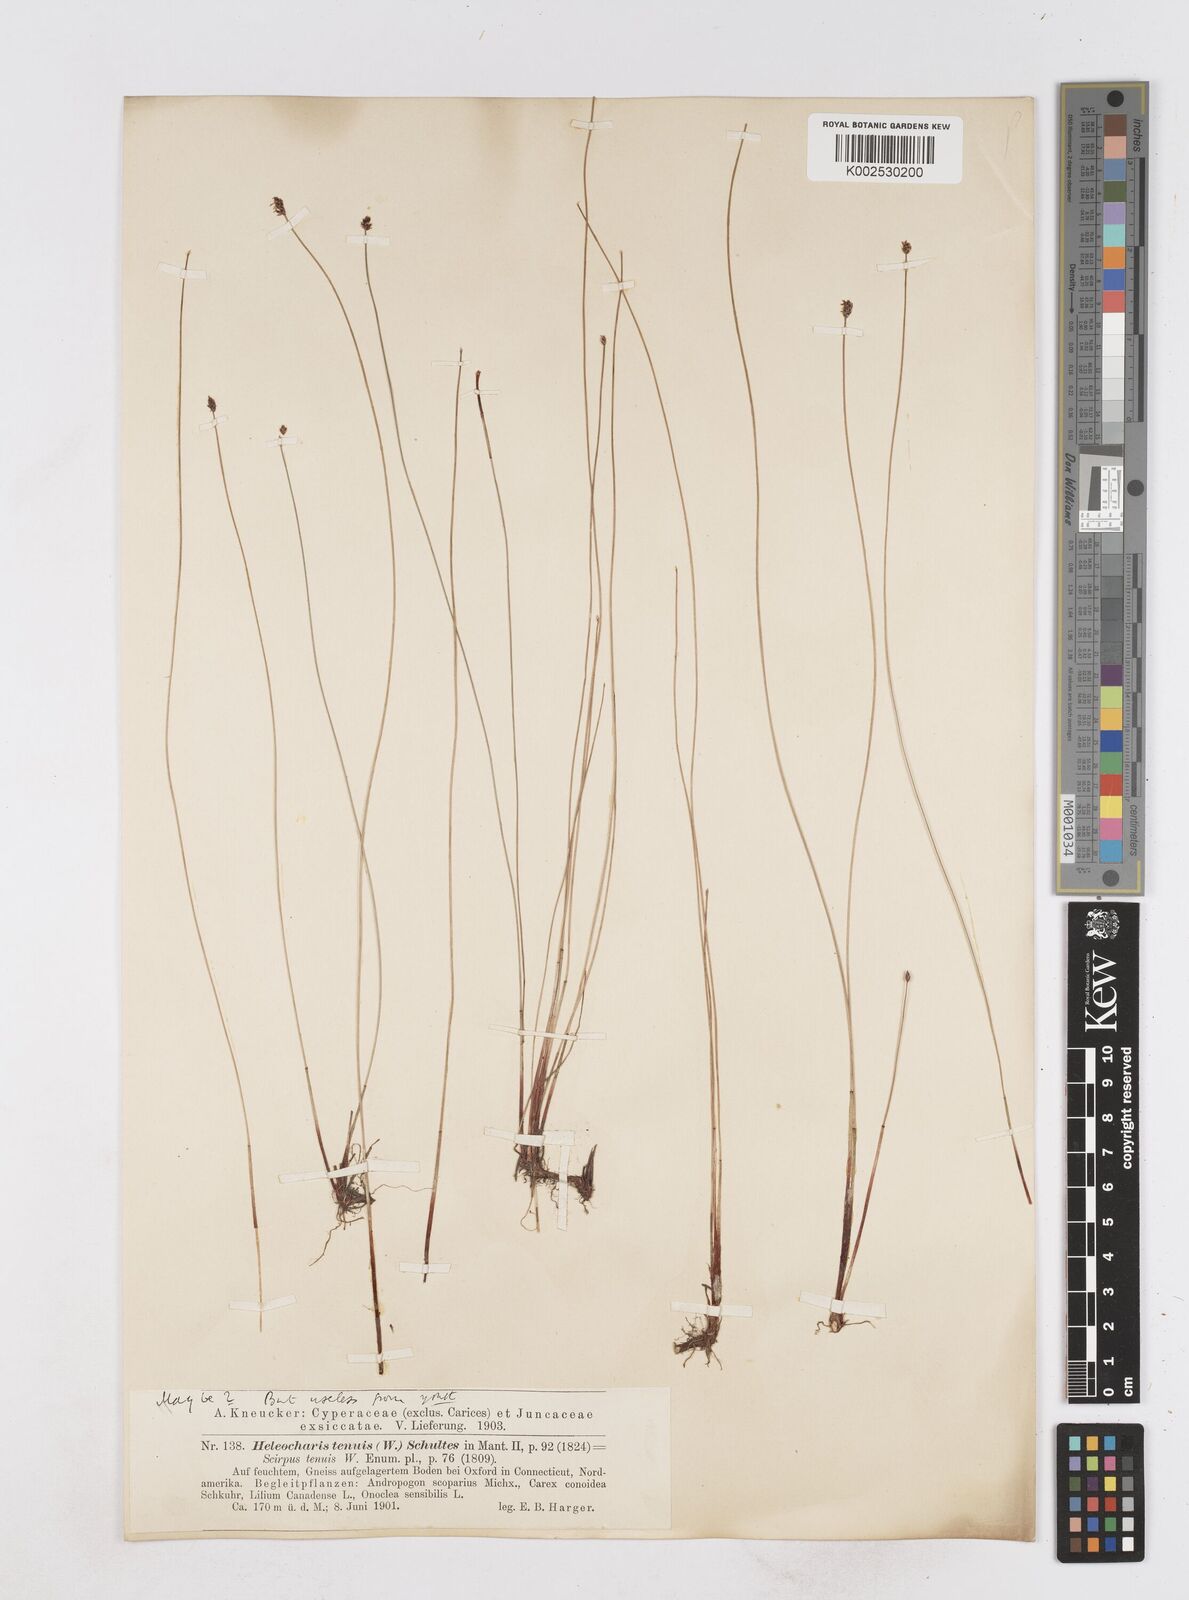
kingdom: Plantae
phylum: Tracheophyta
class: Liliopsida
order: Poales
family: Cyperaceae
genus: Eleocharis
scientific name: Eleocharis tenuis
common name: Dog's hair
